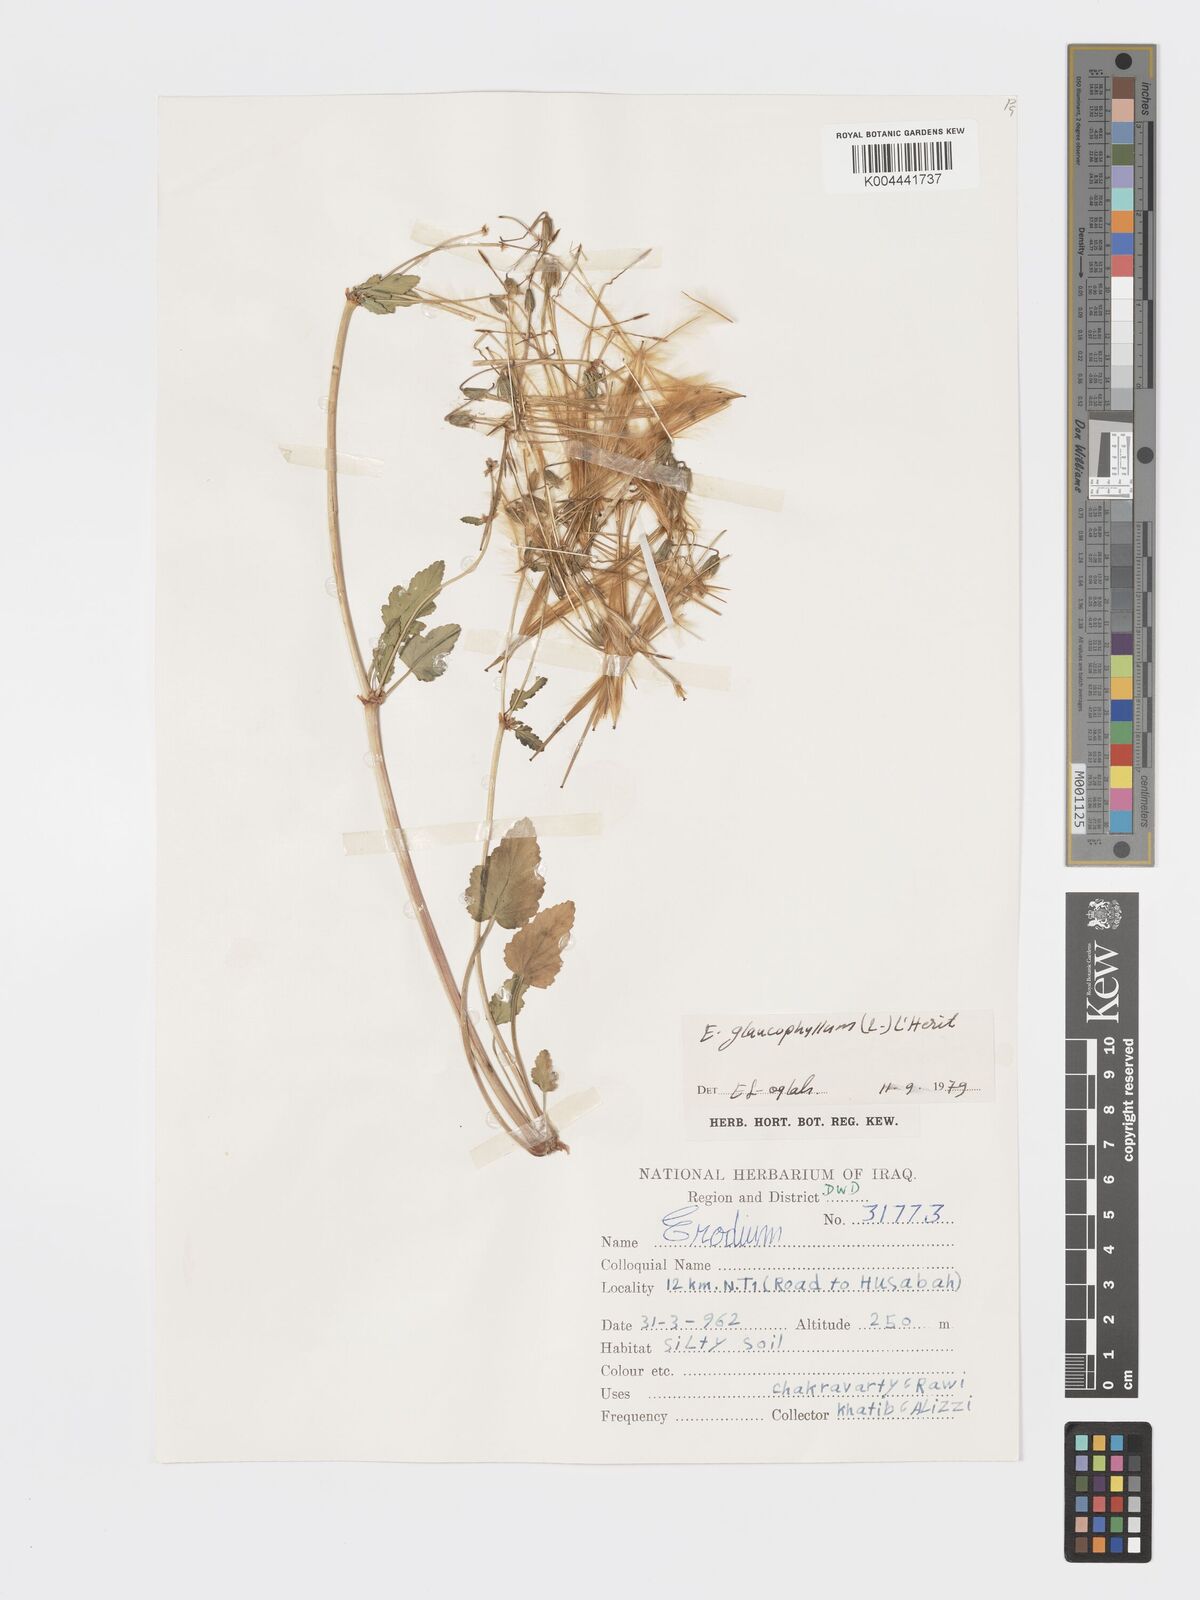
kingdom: Plantae
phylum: Tracheophyta
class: Magnoliopsida
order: Geraniales
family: Geraniaceae
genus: Erodium
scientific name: Erodium glaucophyllum
